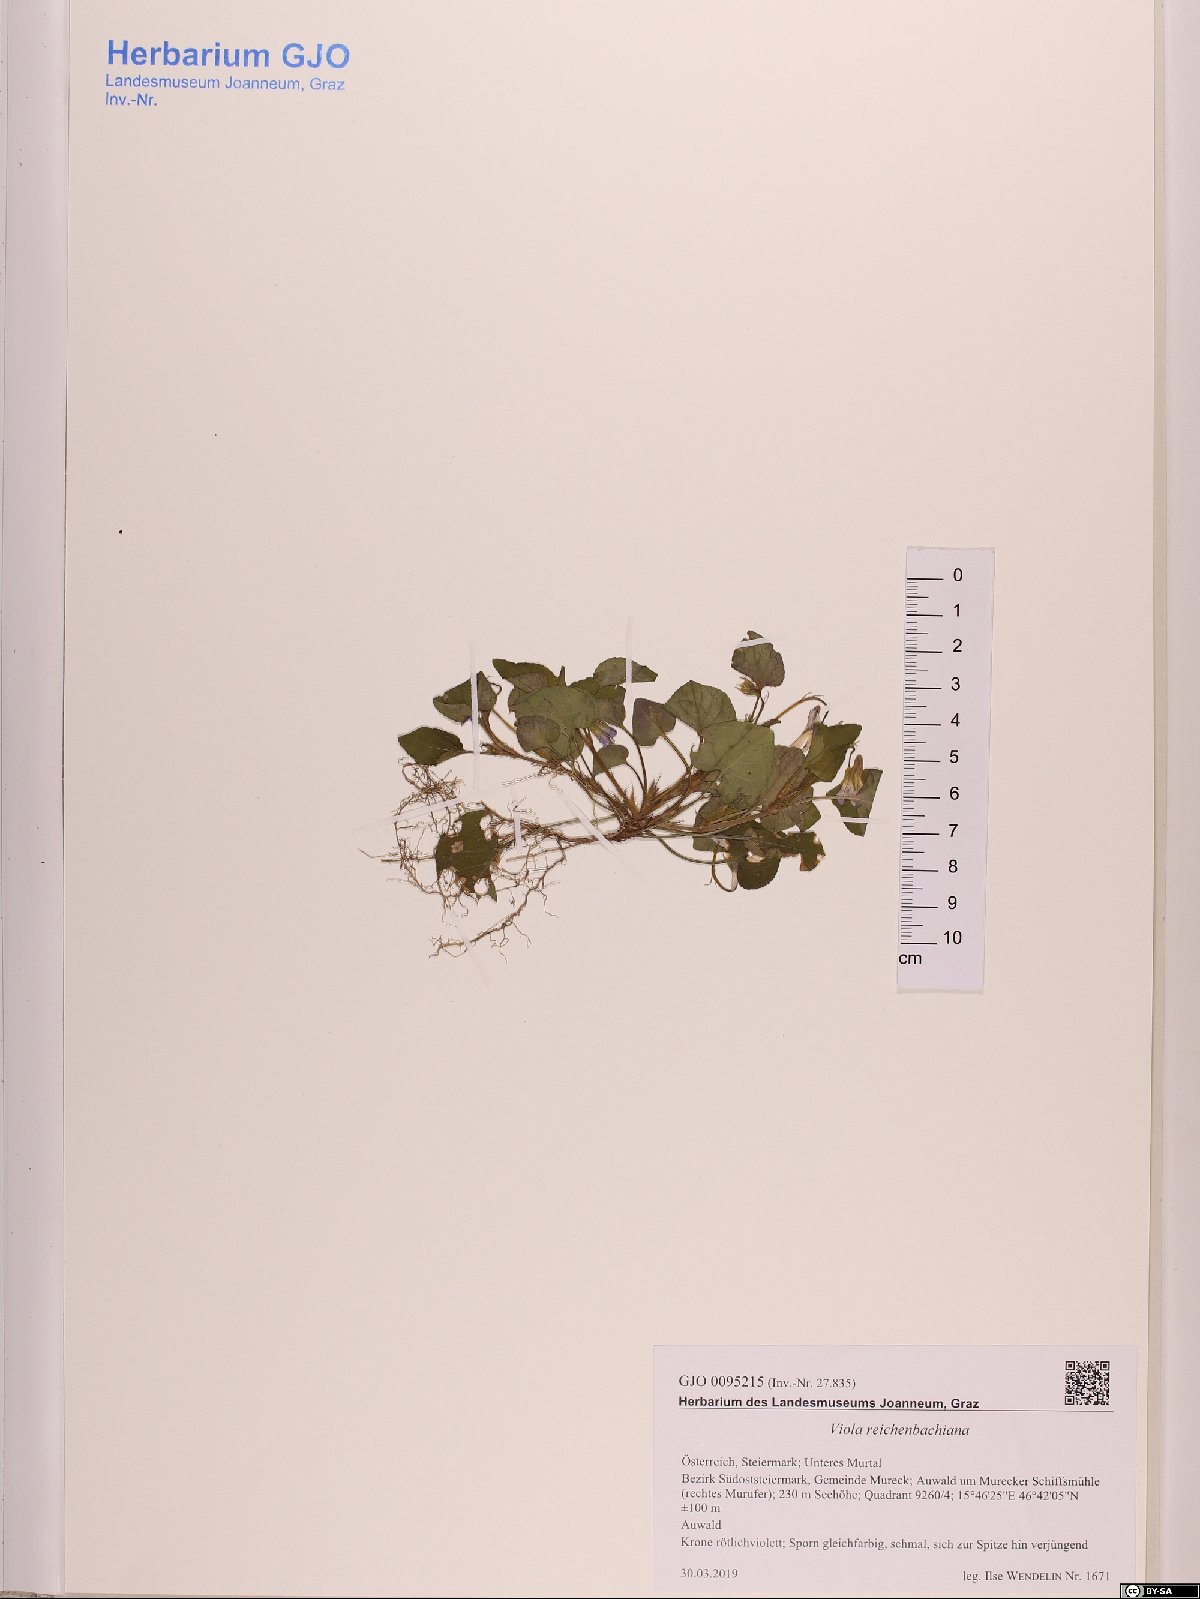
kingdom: Plantae
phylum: Tracheophyta
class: Magnoliopsida
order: Malpighiales
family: Violaceae
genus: Viola
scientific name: Viola reichenbachiana
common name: Early dog-violet
